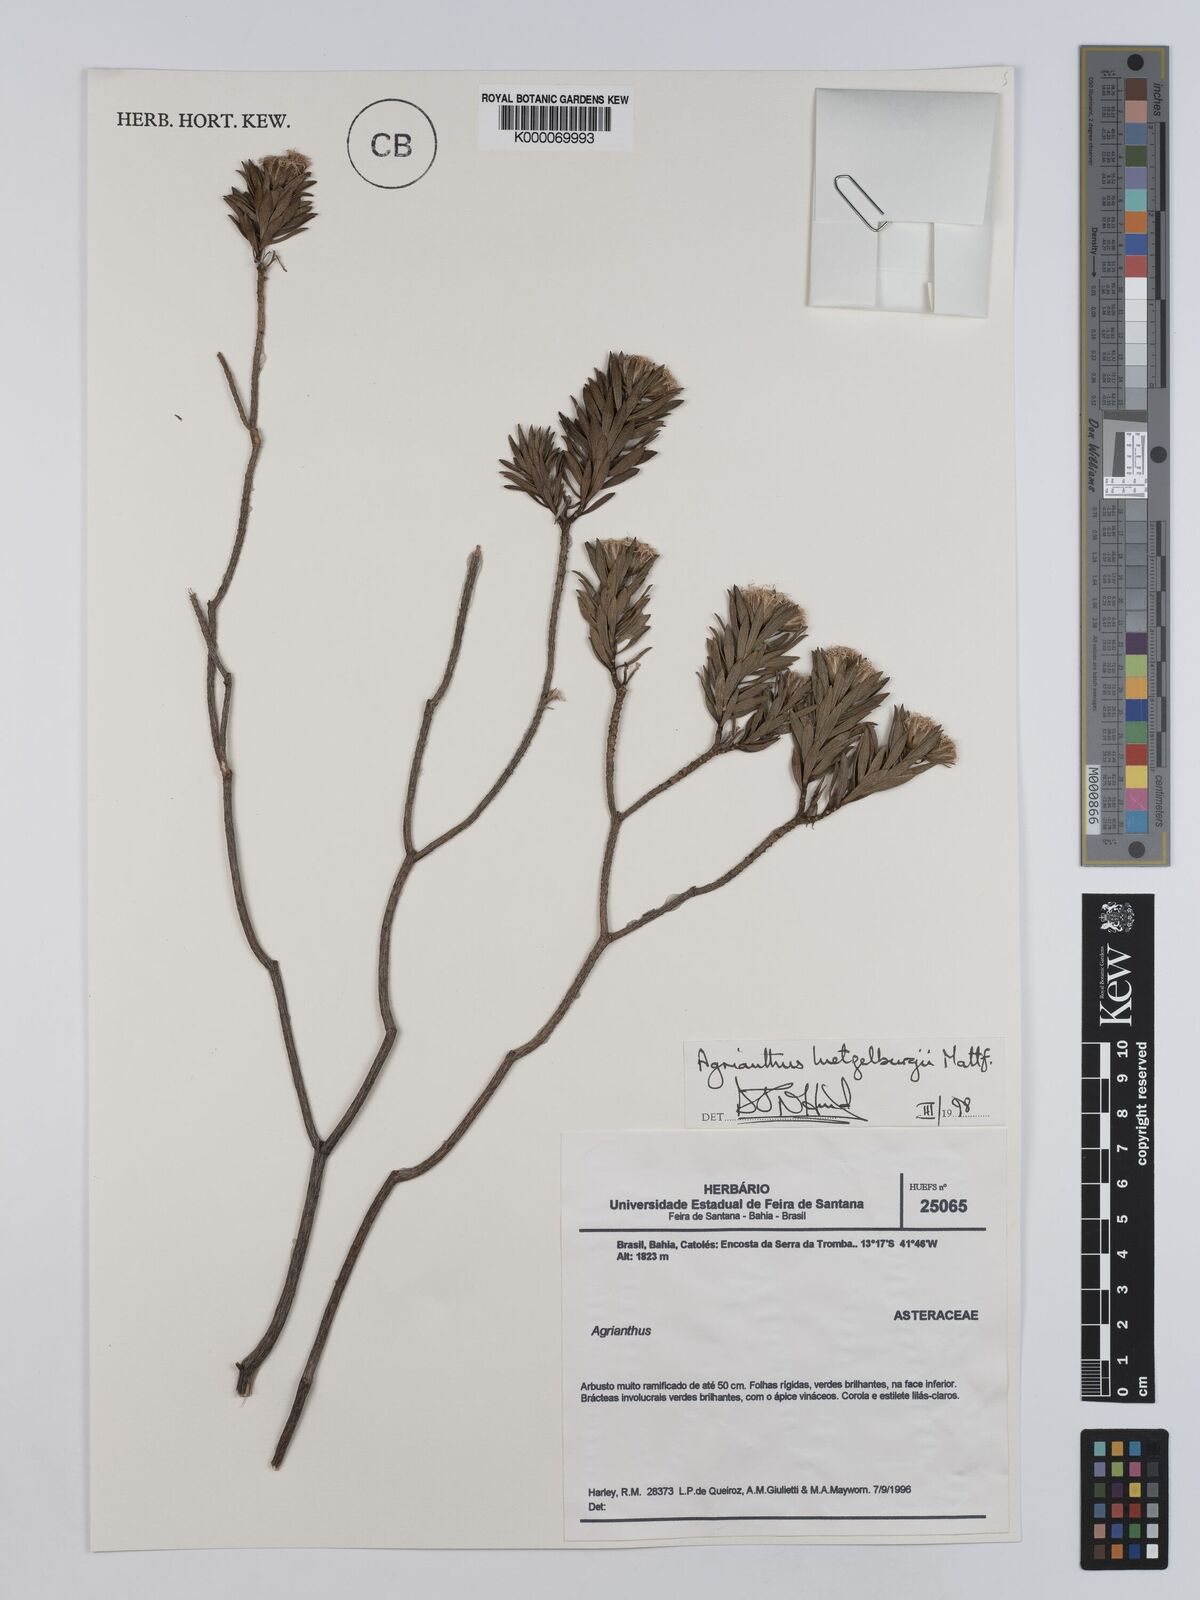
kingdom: Plantae
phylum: Tracheophyta
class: Magnoliopsida
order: Asterales
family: Asteraceae
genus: Agrianthus
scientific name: Agrianthus
